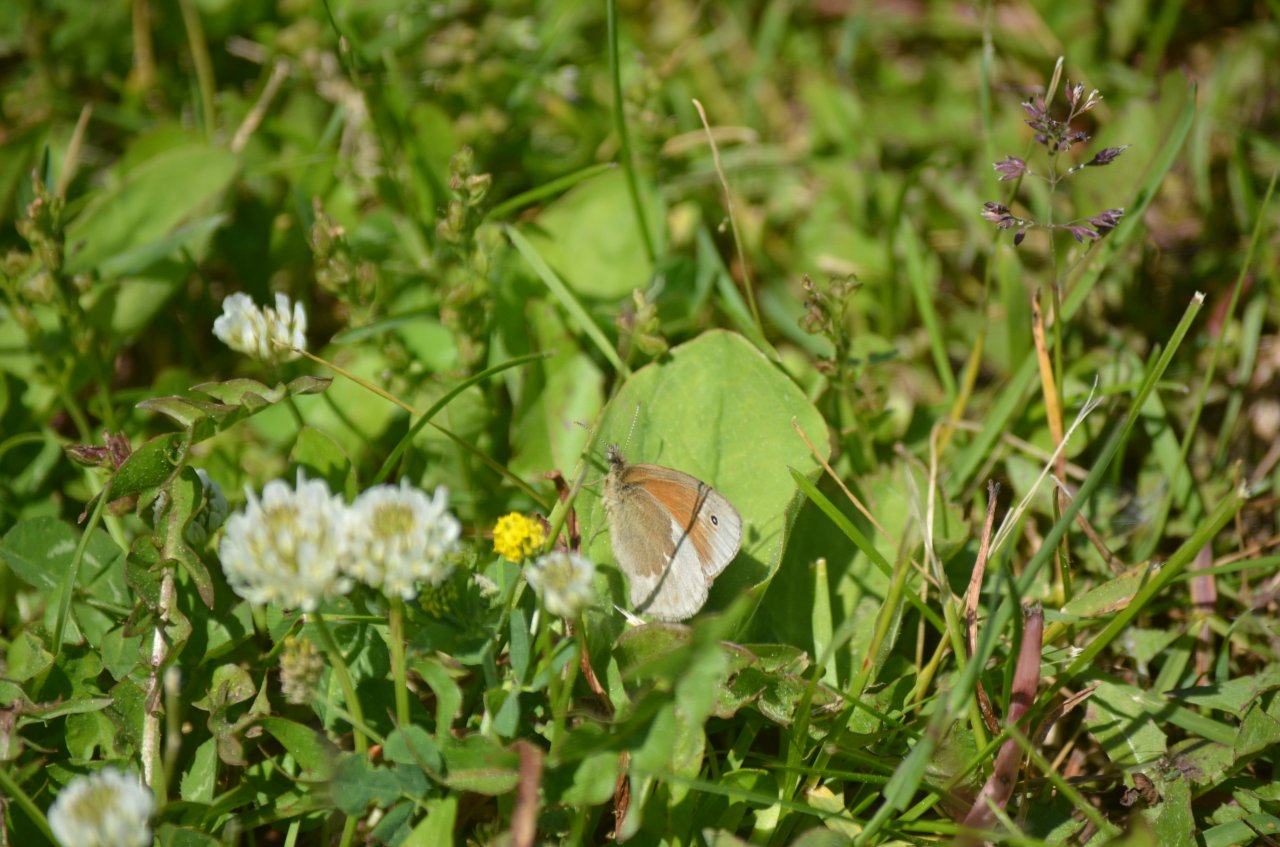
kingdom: Animalia
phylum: Arthropoda
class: Insecta
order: Lepidoptera
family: Nymphalidae
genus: Coenonympha
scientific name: Coenonympha tullia
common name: Large Heath
